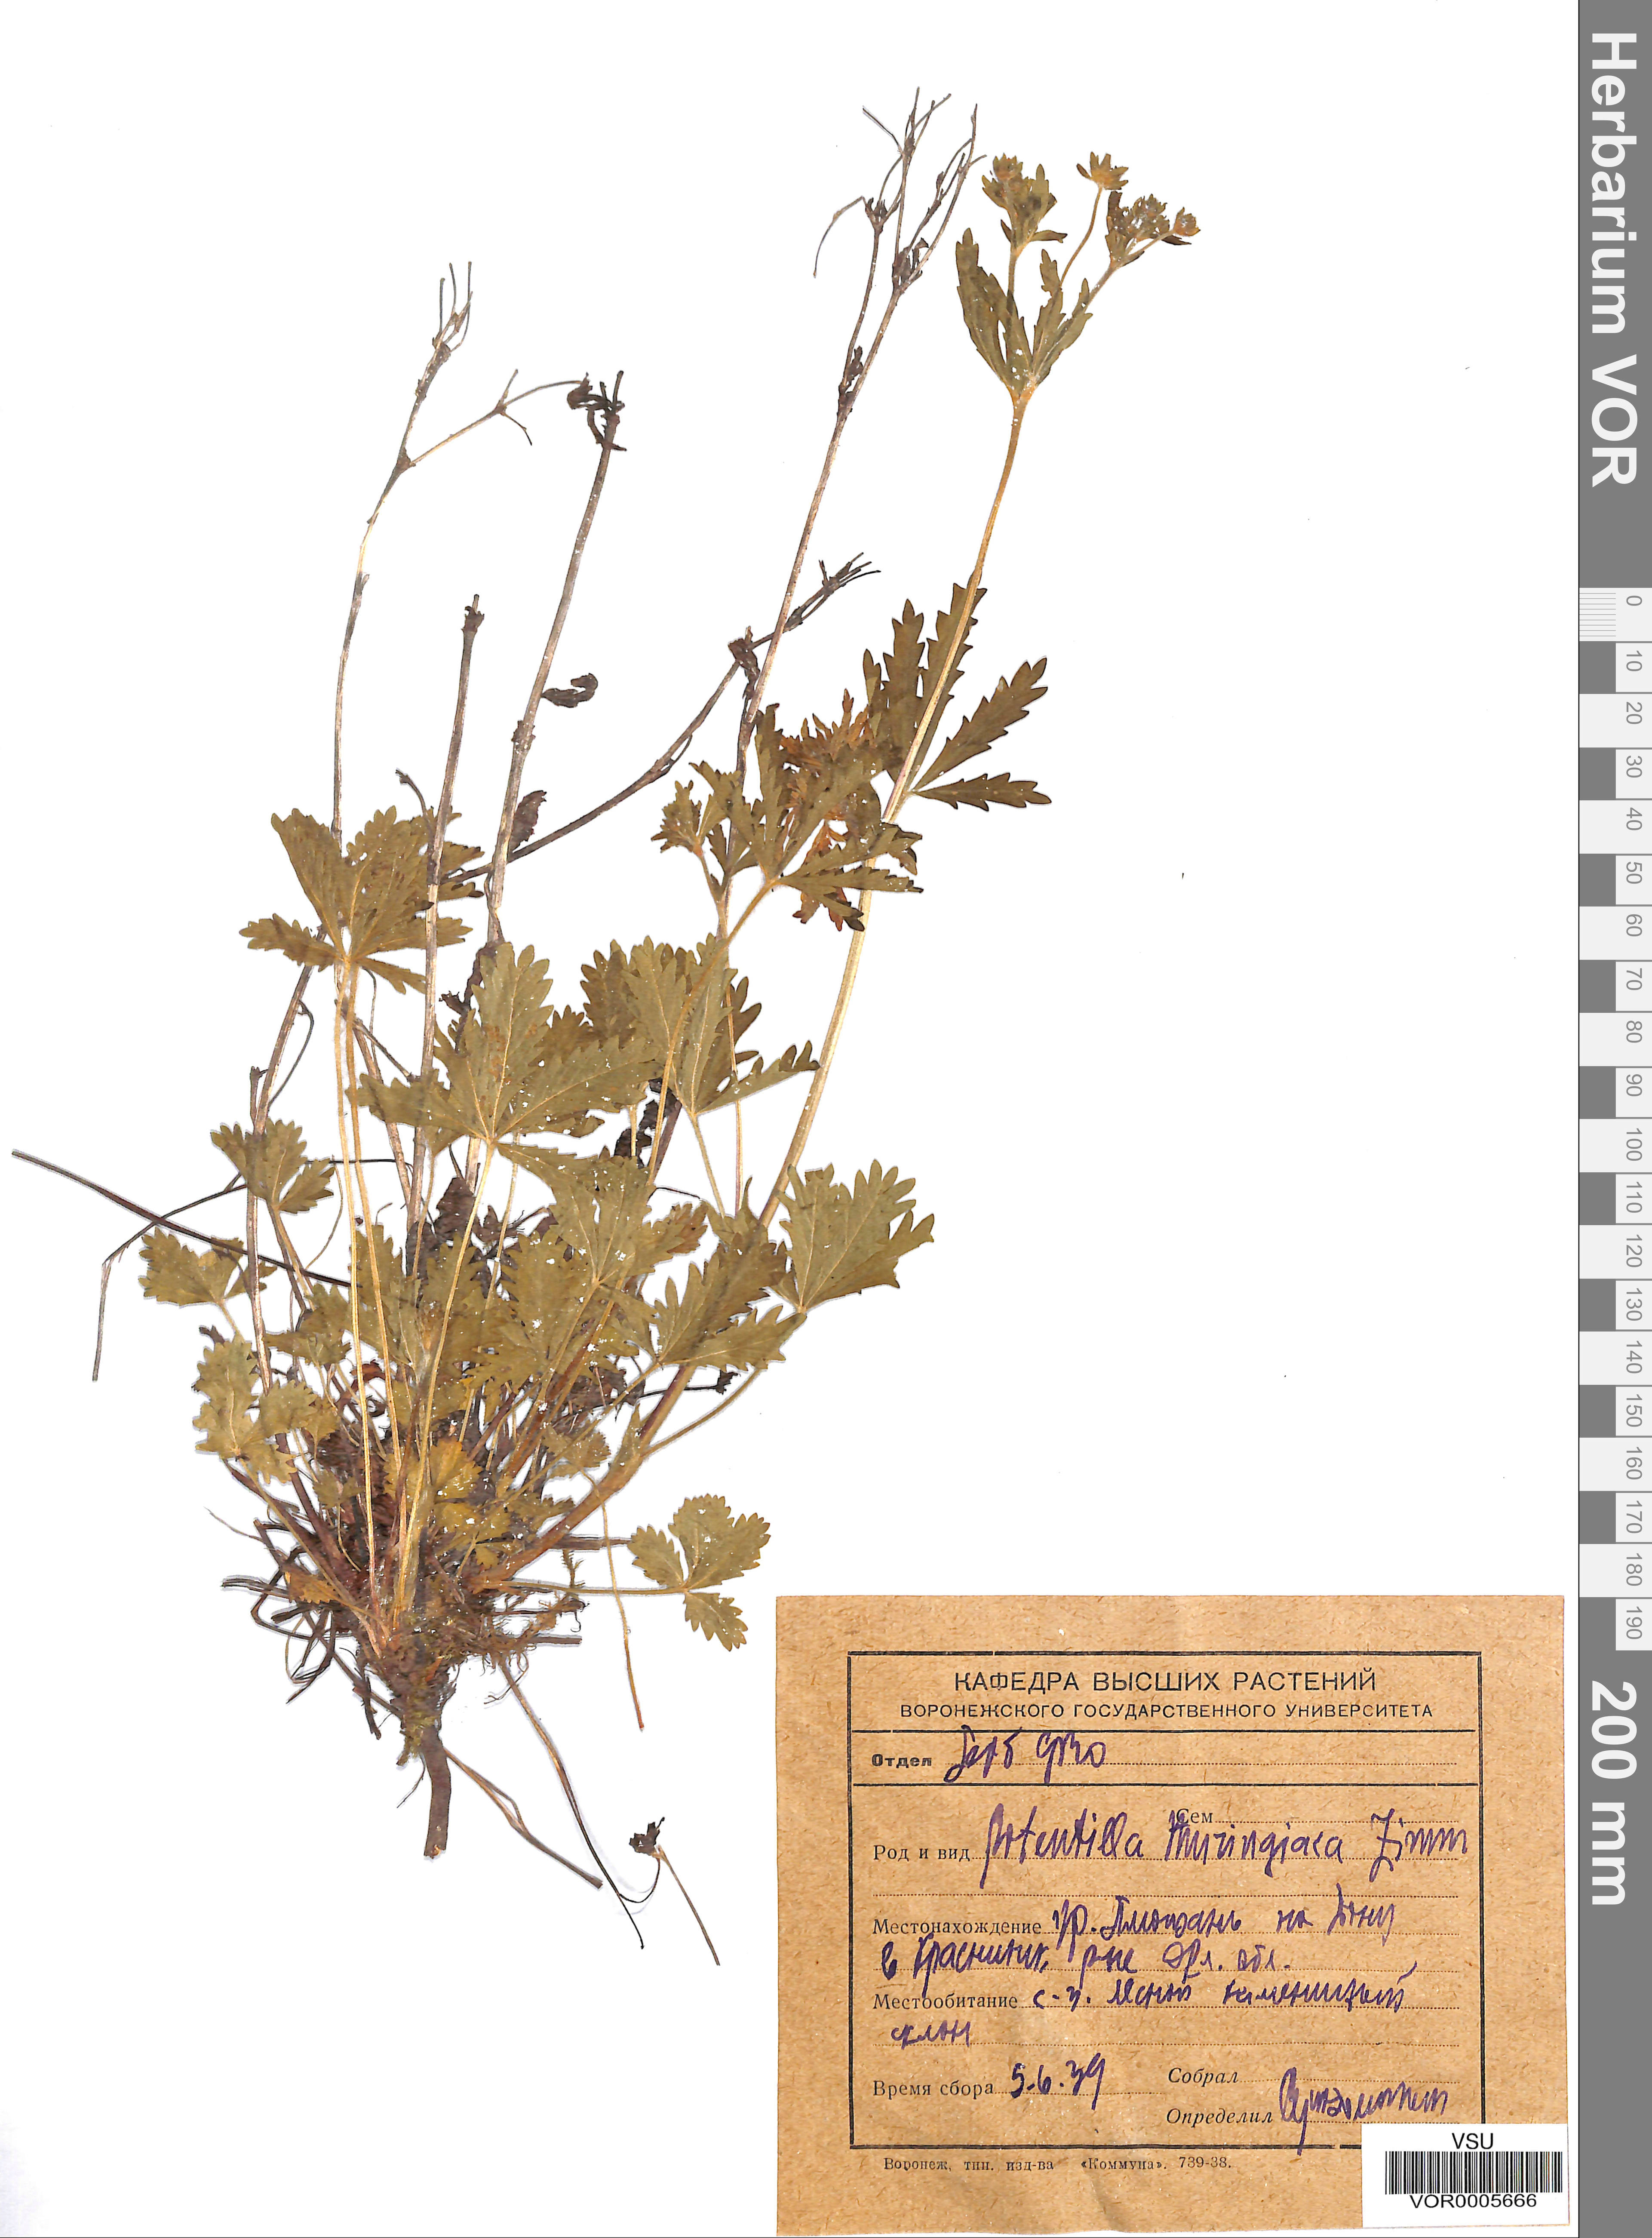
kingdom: Plantae
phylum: Tracheophyta
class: Magnoliopsida
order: Rosales
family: Rosaceae
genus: Potentilla
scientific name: Potentilla thuringiaca
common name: European cinquefoil
